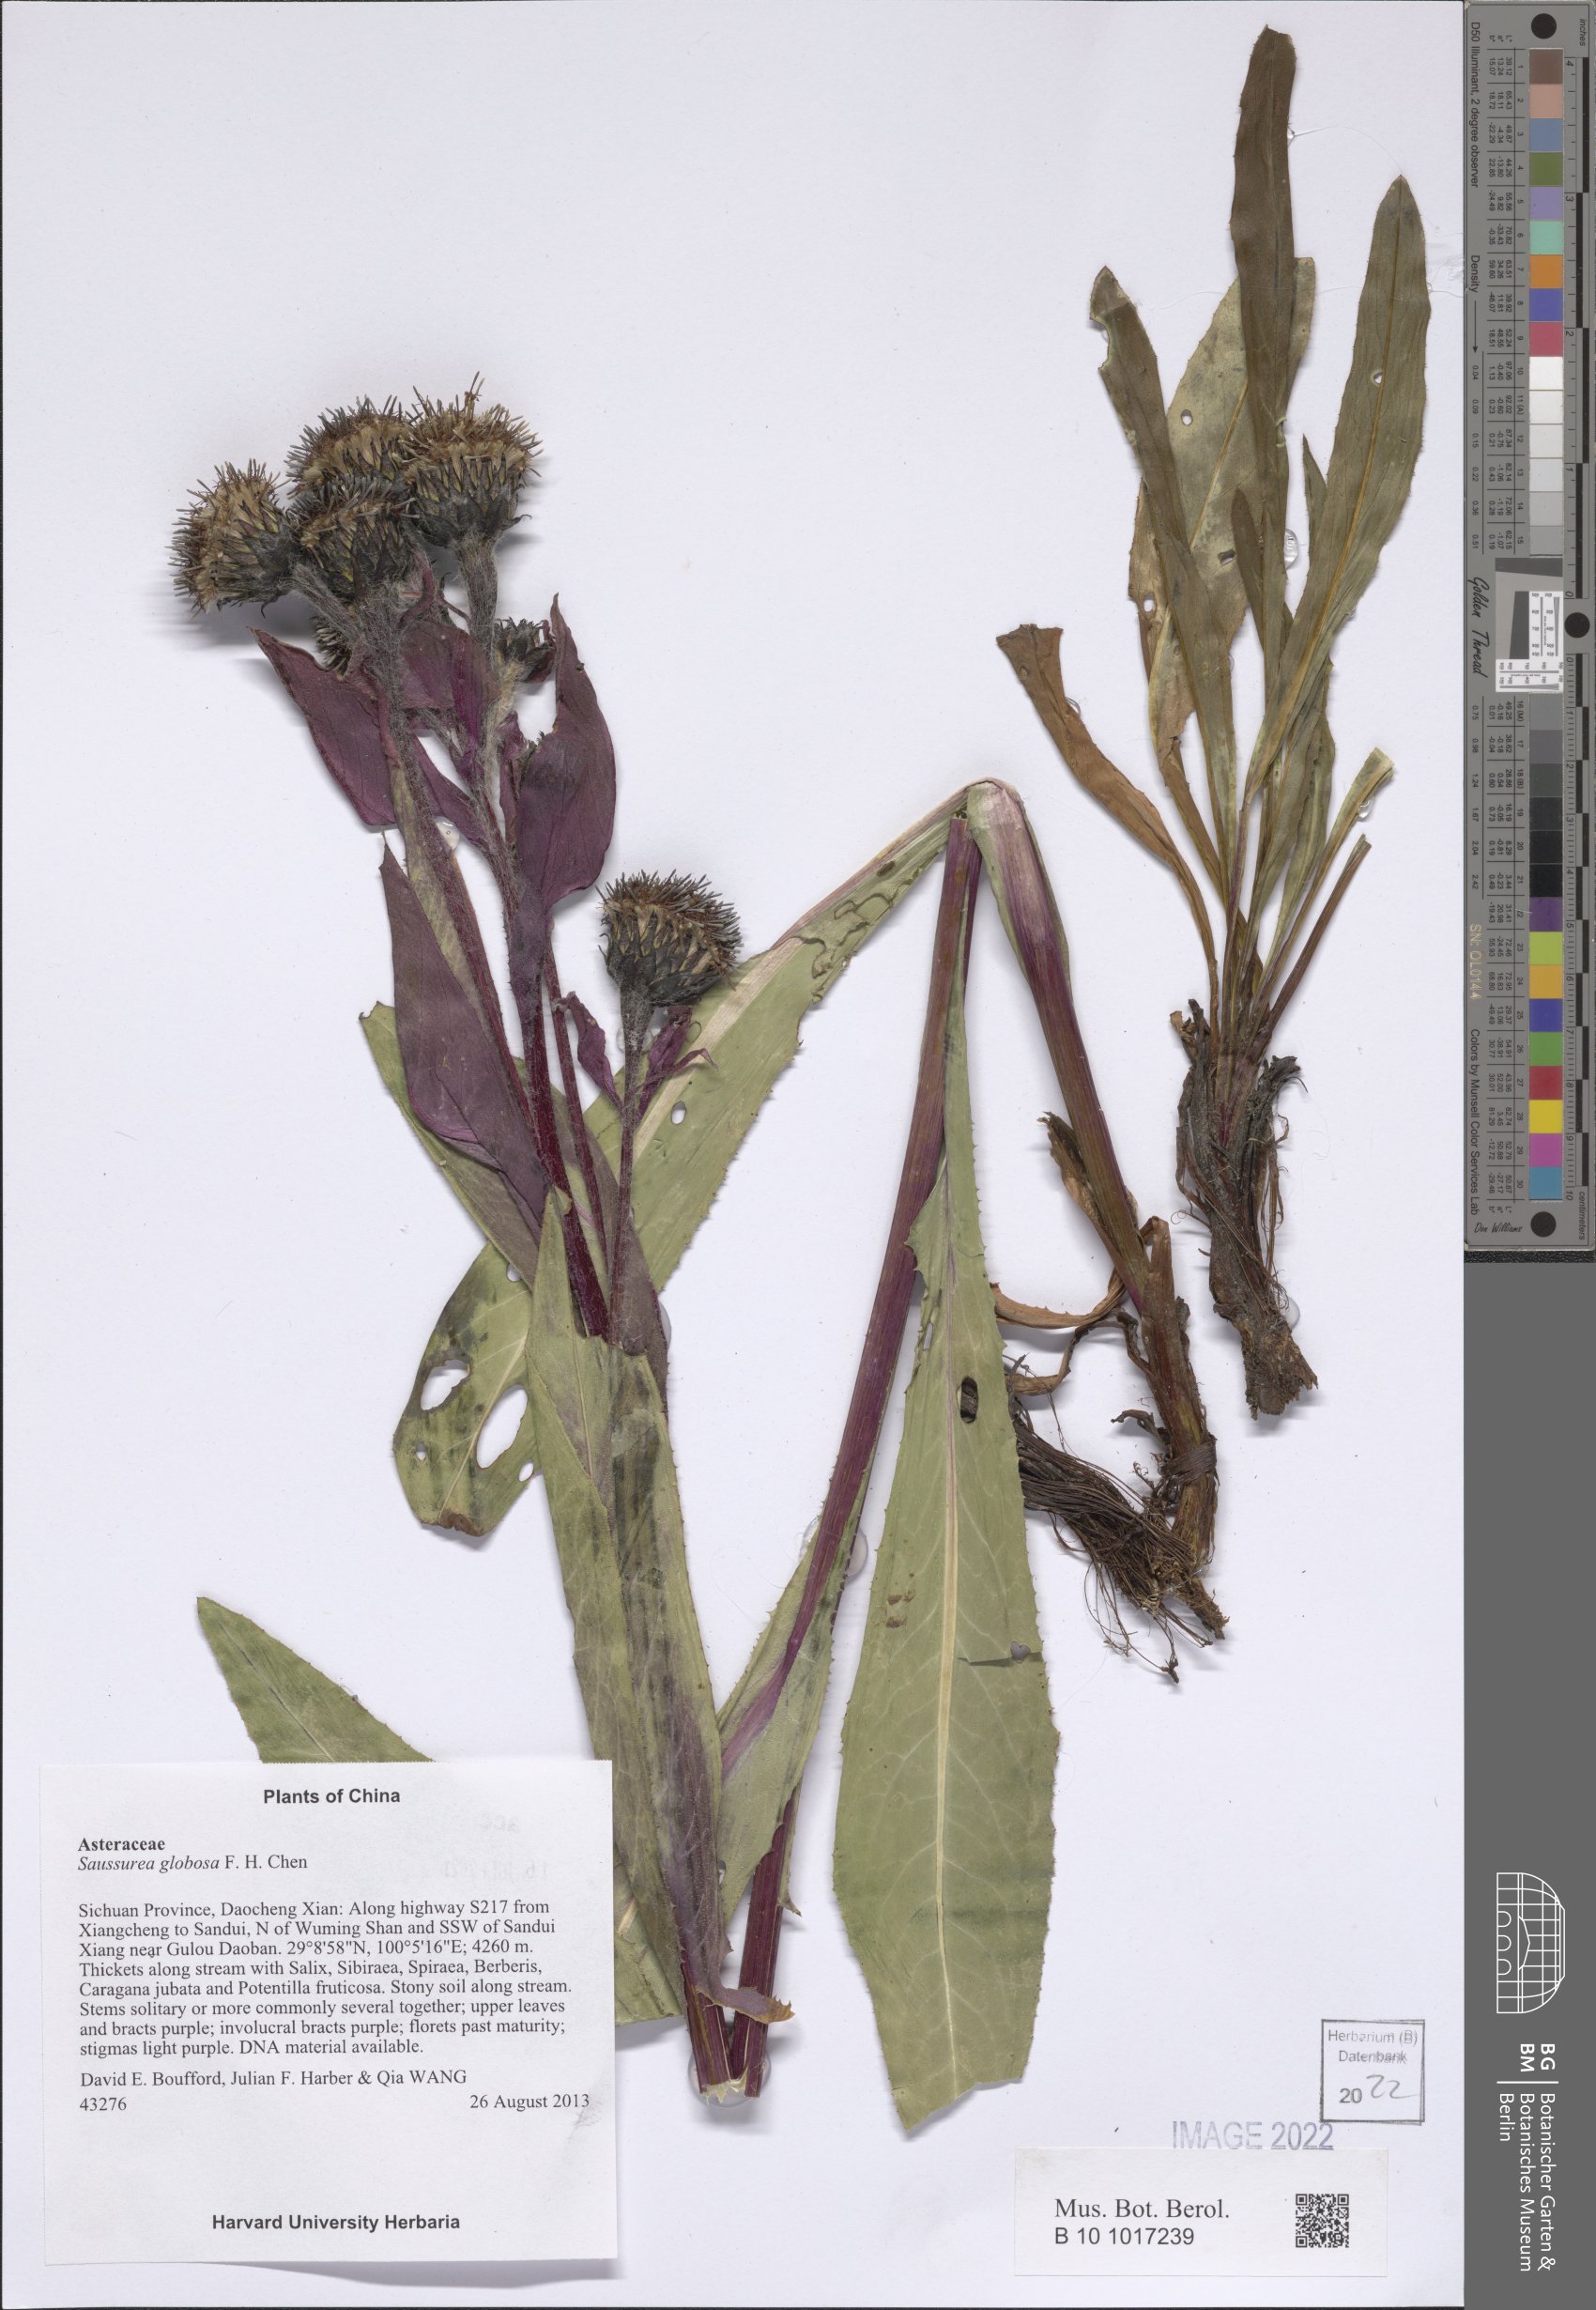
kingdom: Plantae
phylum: Tracheophyta
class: Magnoliopsida
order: Asterales
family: Asteraceae
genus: Saussurea
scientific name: Saussurea globosa
